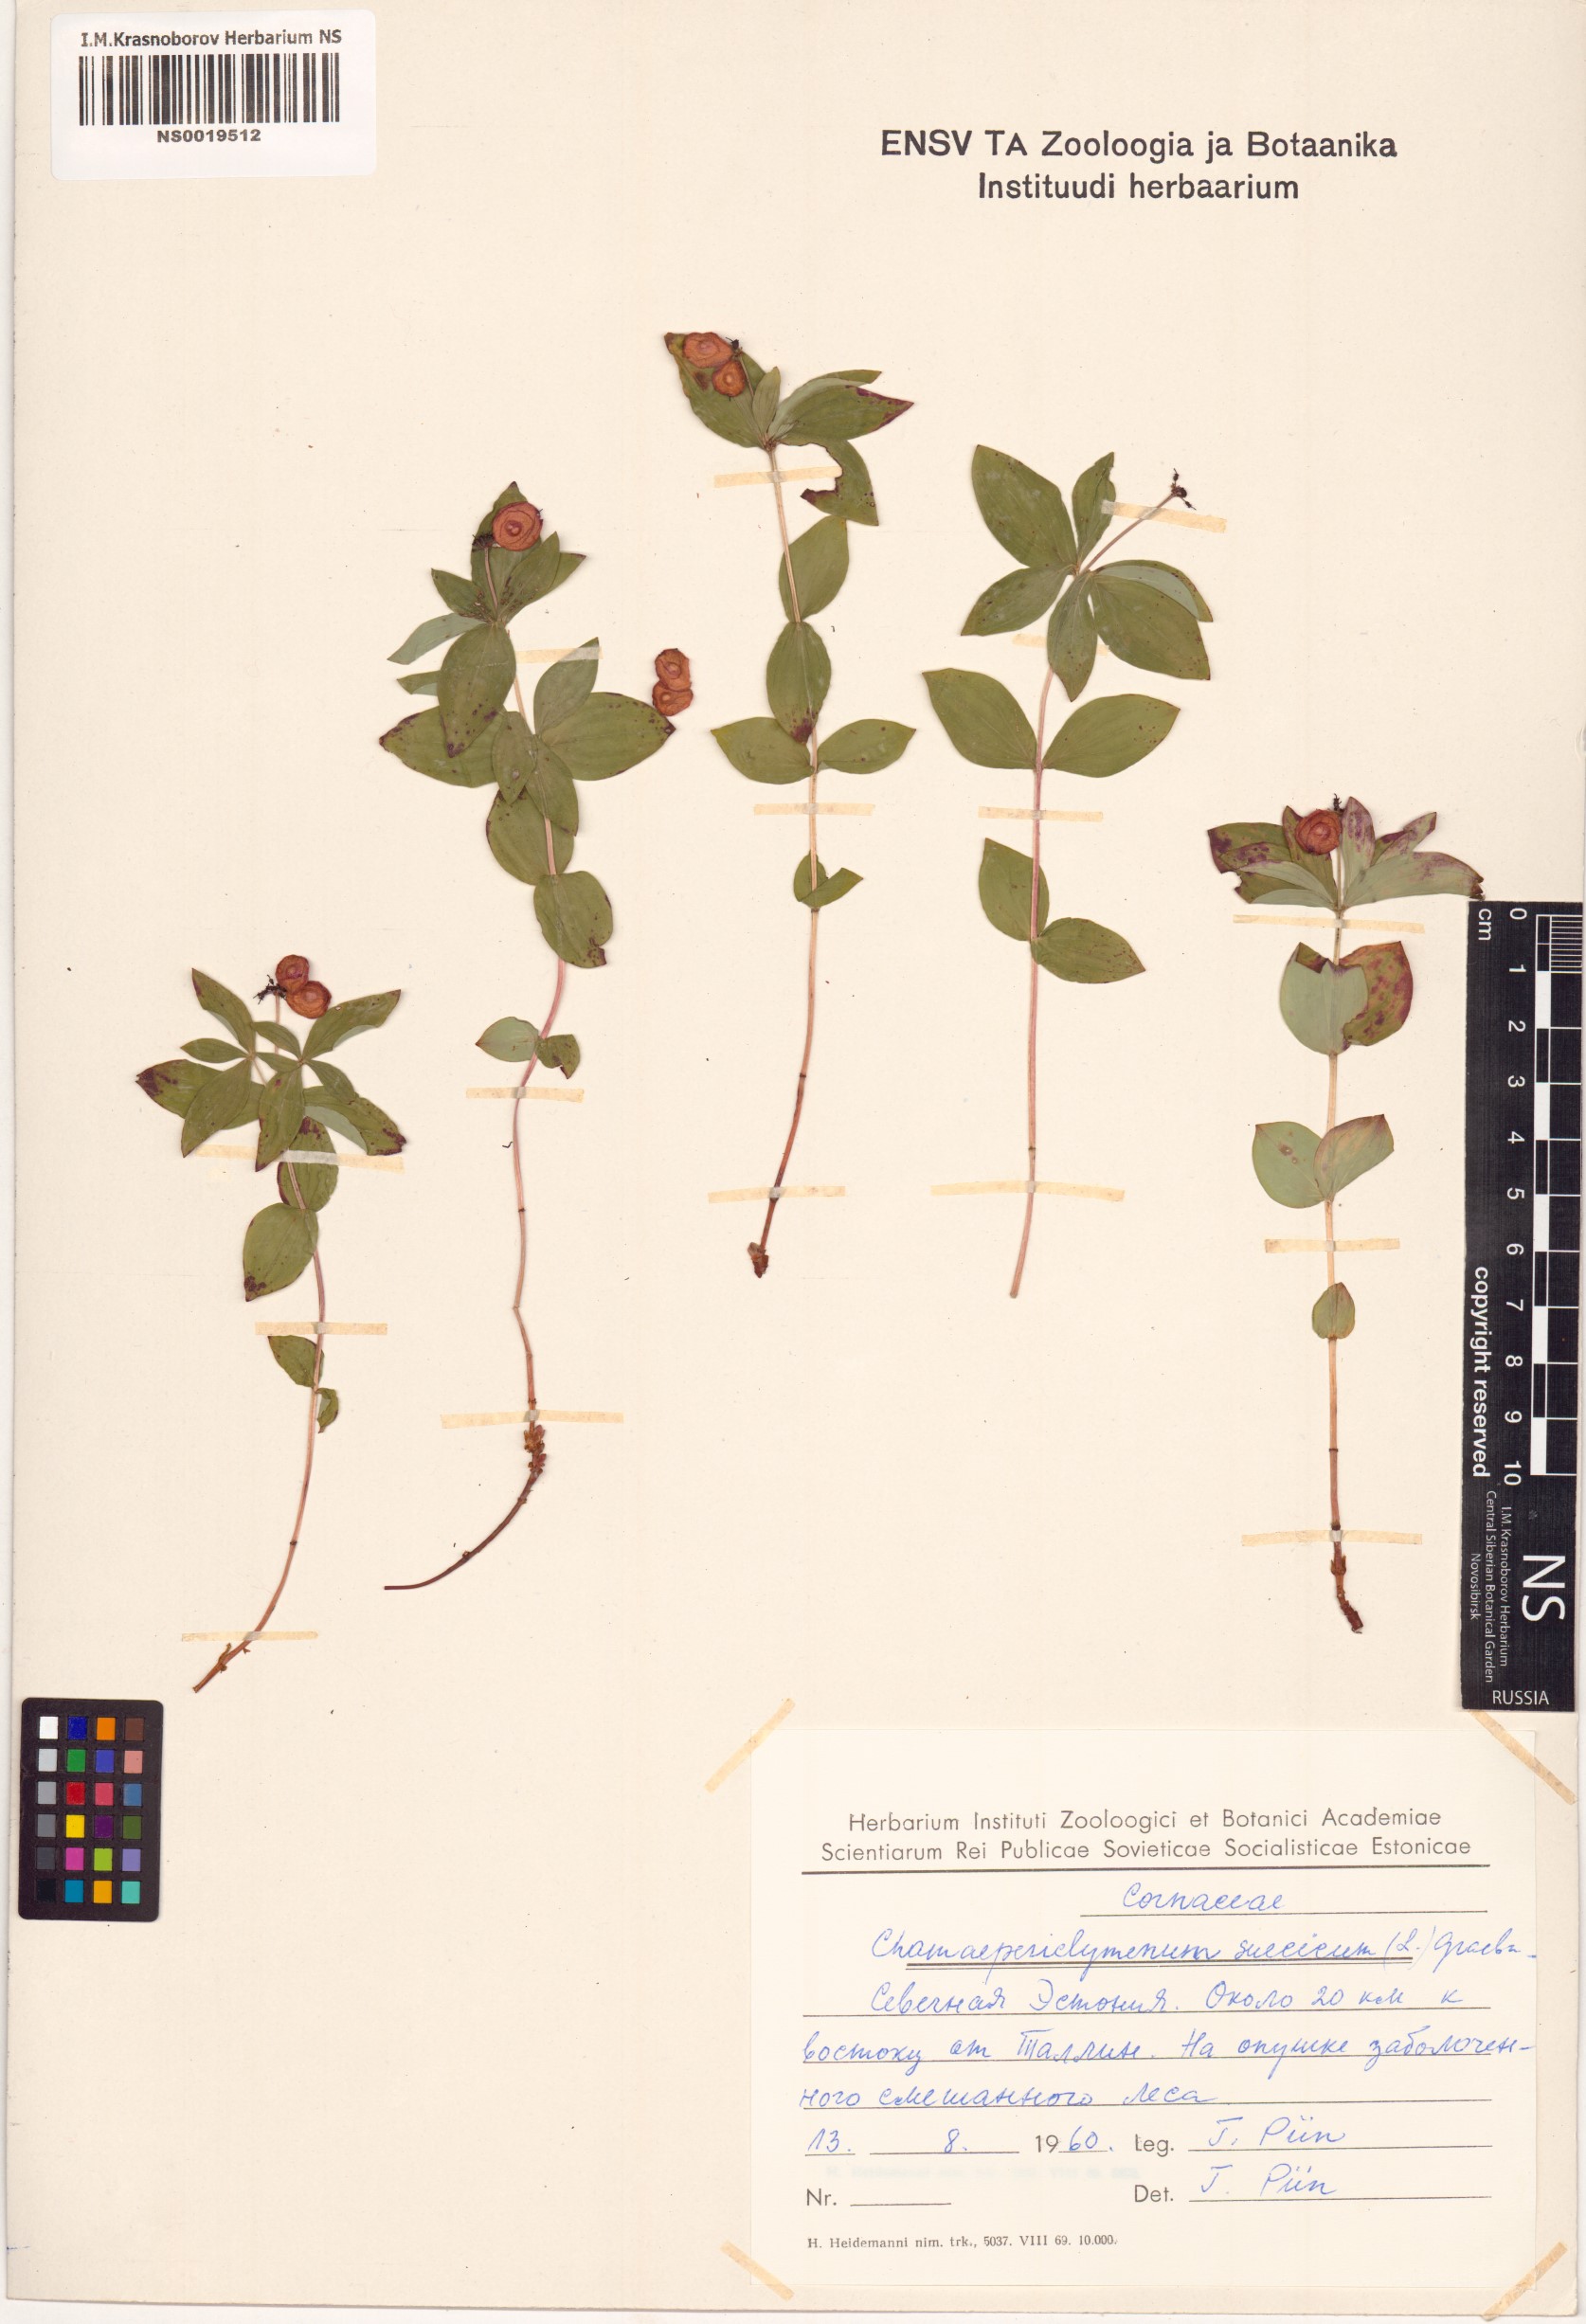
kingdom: Plantae
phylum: Tracheophyta
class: Magnoliopsida
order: Cornales
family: Cornaceae
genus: Cornus
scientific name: Cornus suecica
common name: Dwarf cornel
